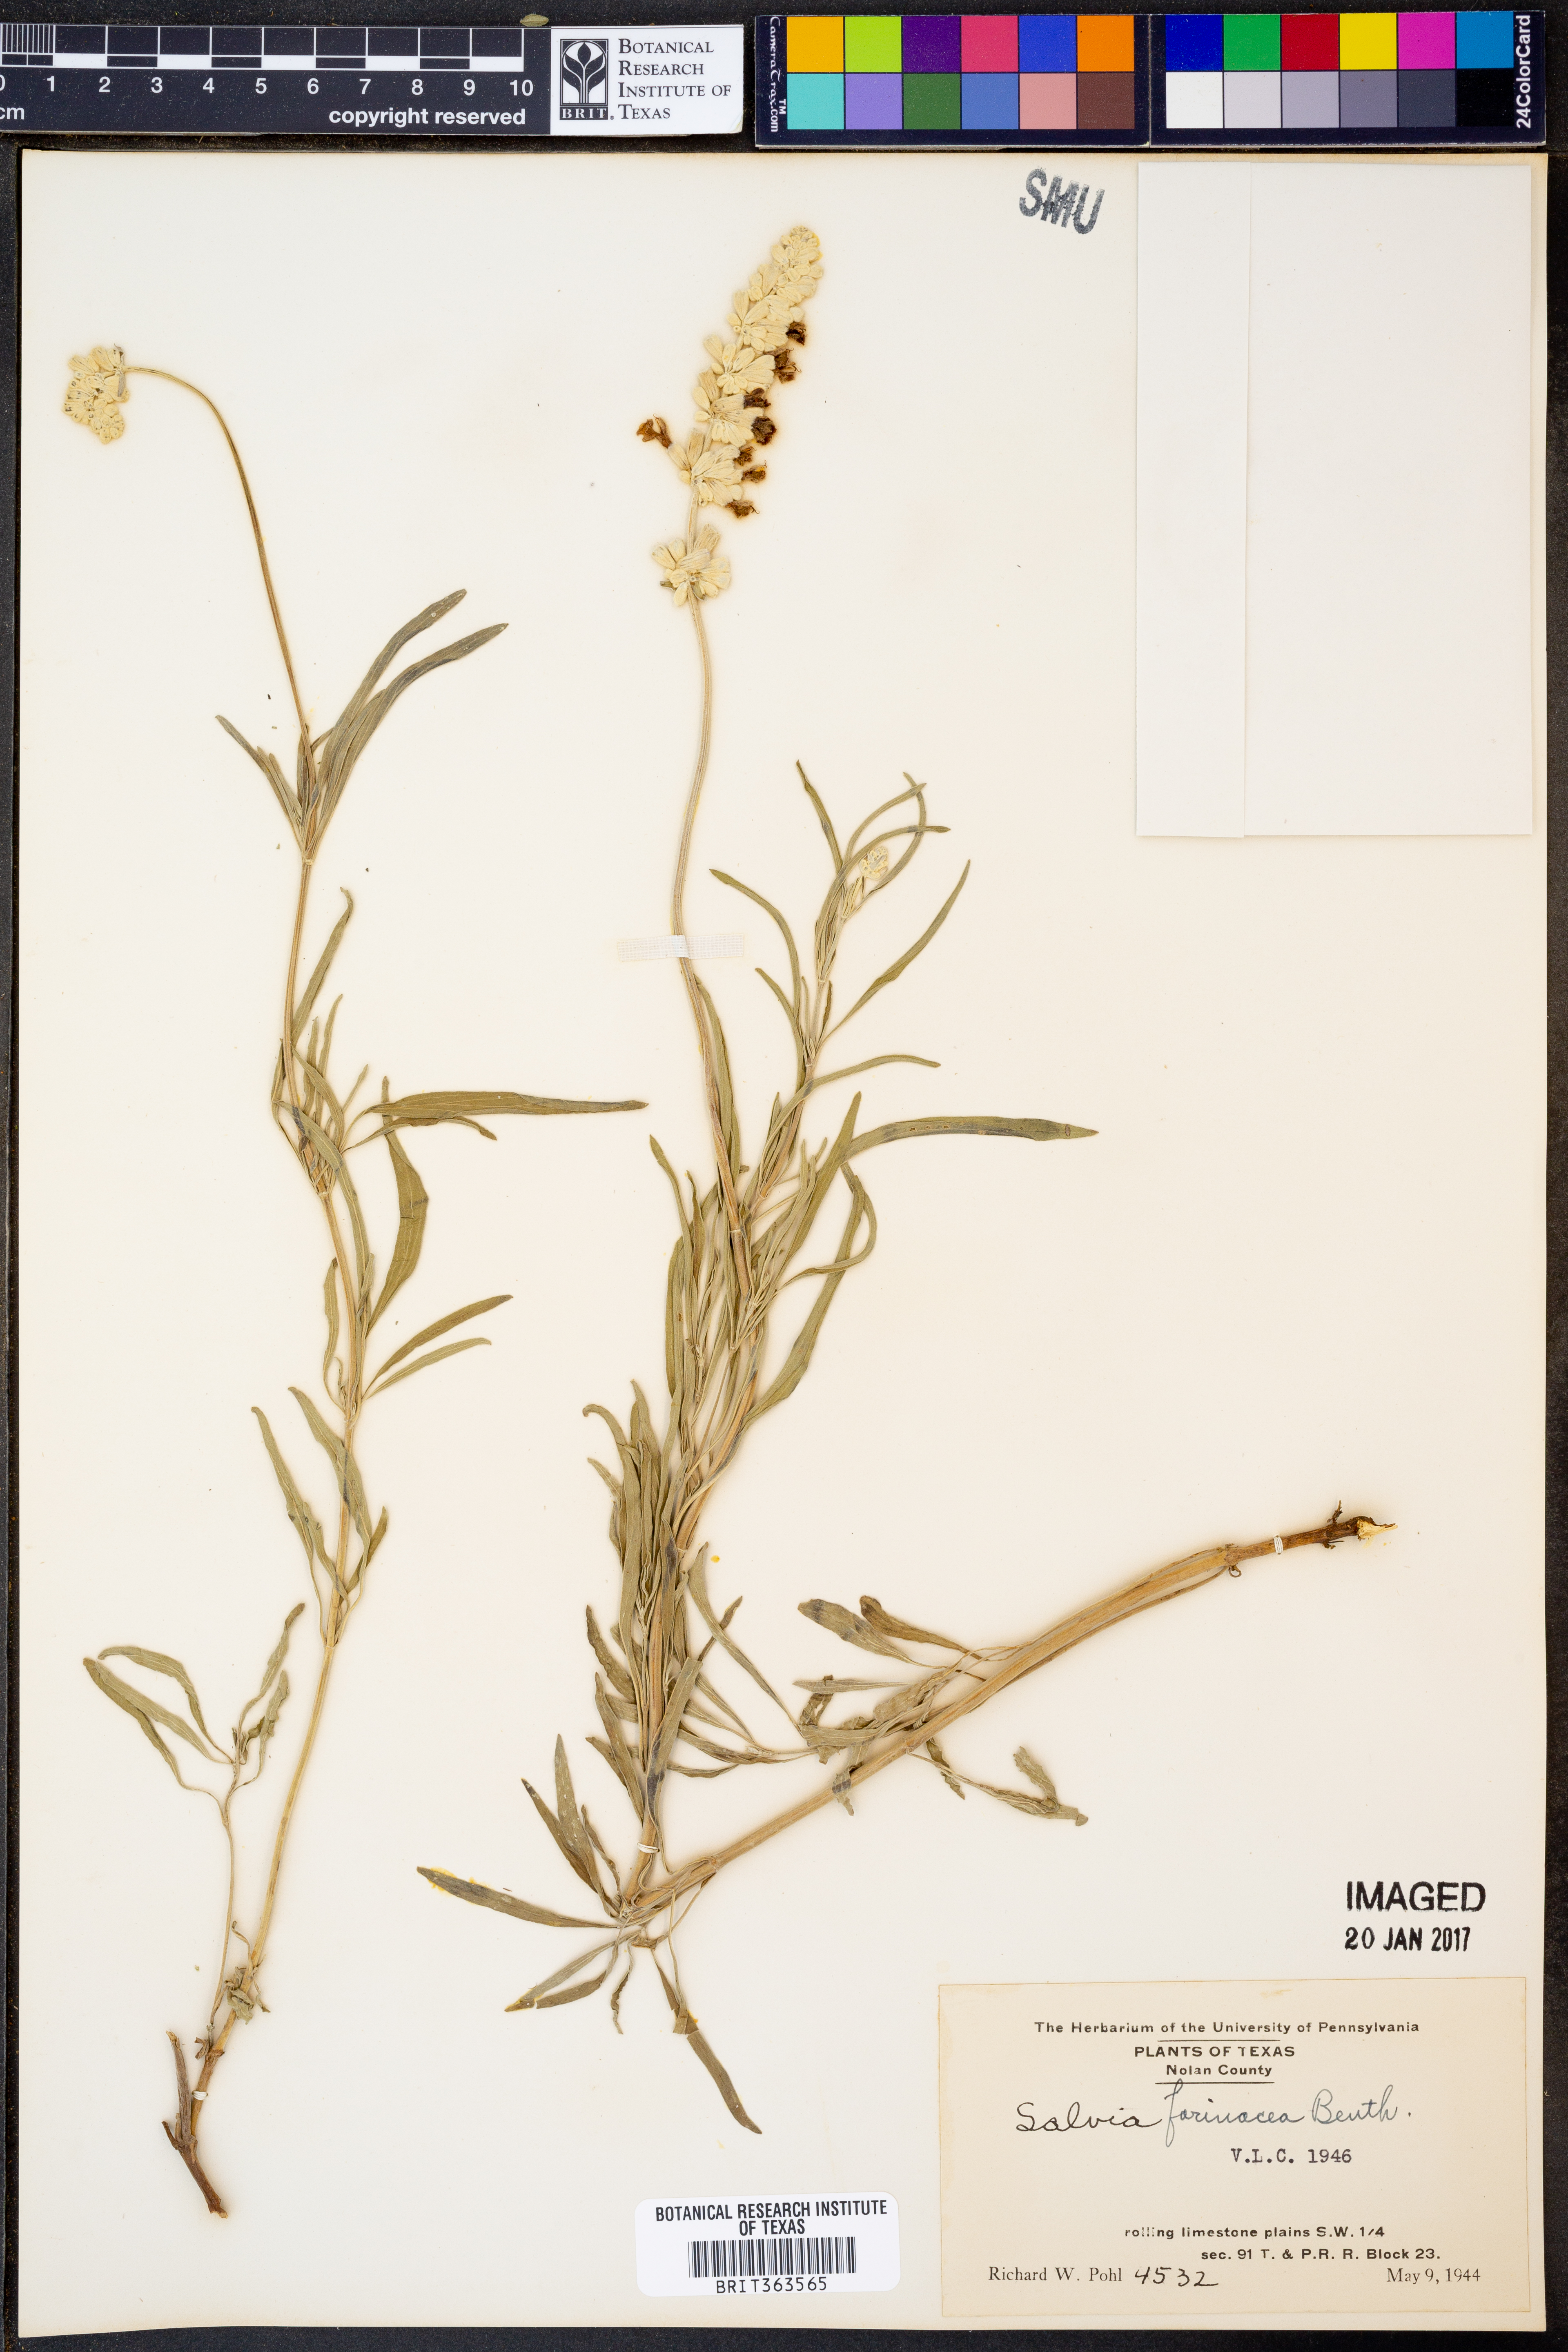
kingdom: Plantae
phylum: Tracheophyta
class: Magnoliopsida
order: Lamiales
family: Lamiaceae
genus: Salvia
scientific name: Salvia farinacea
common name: Mealy sage
